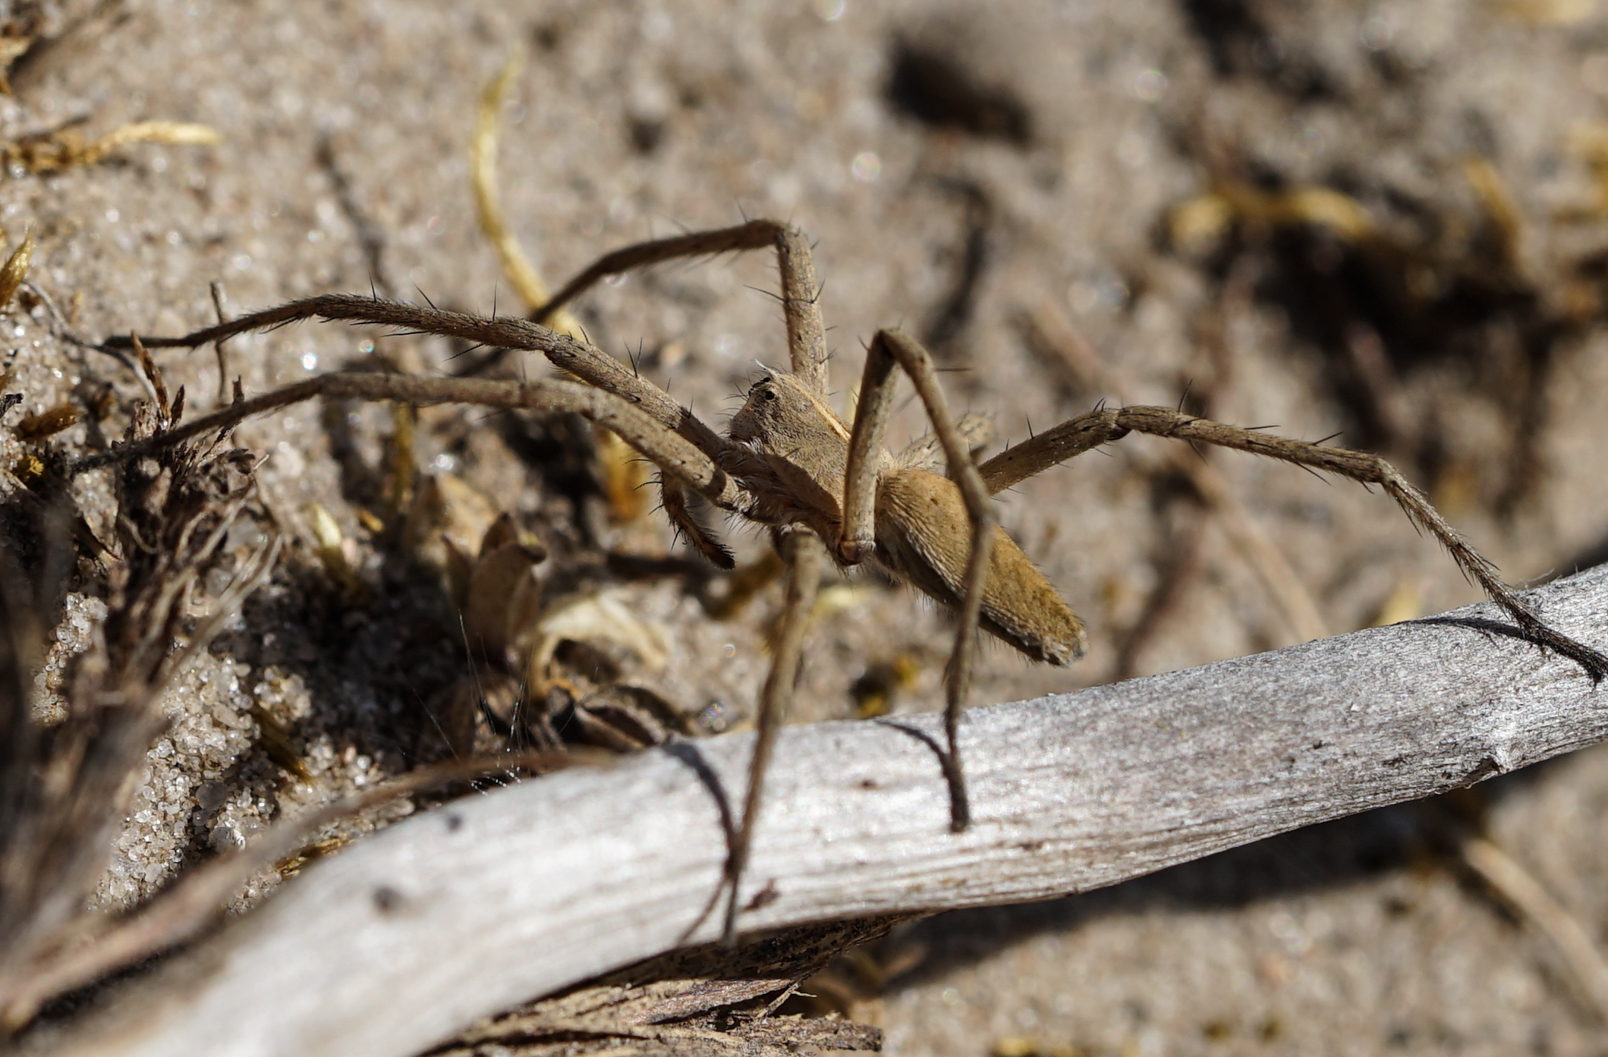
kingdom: Animalia
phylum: Arthropoda
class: Arachnida
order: Araneae
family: Pisauridae
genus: Pisaura
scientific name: Pisaura mirabilis
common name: Tent spider
